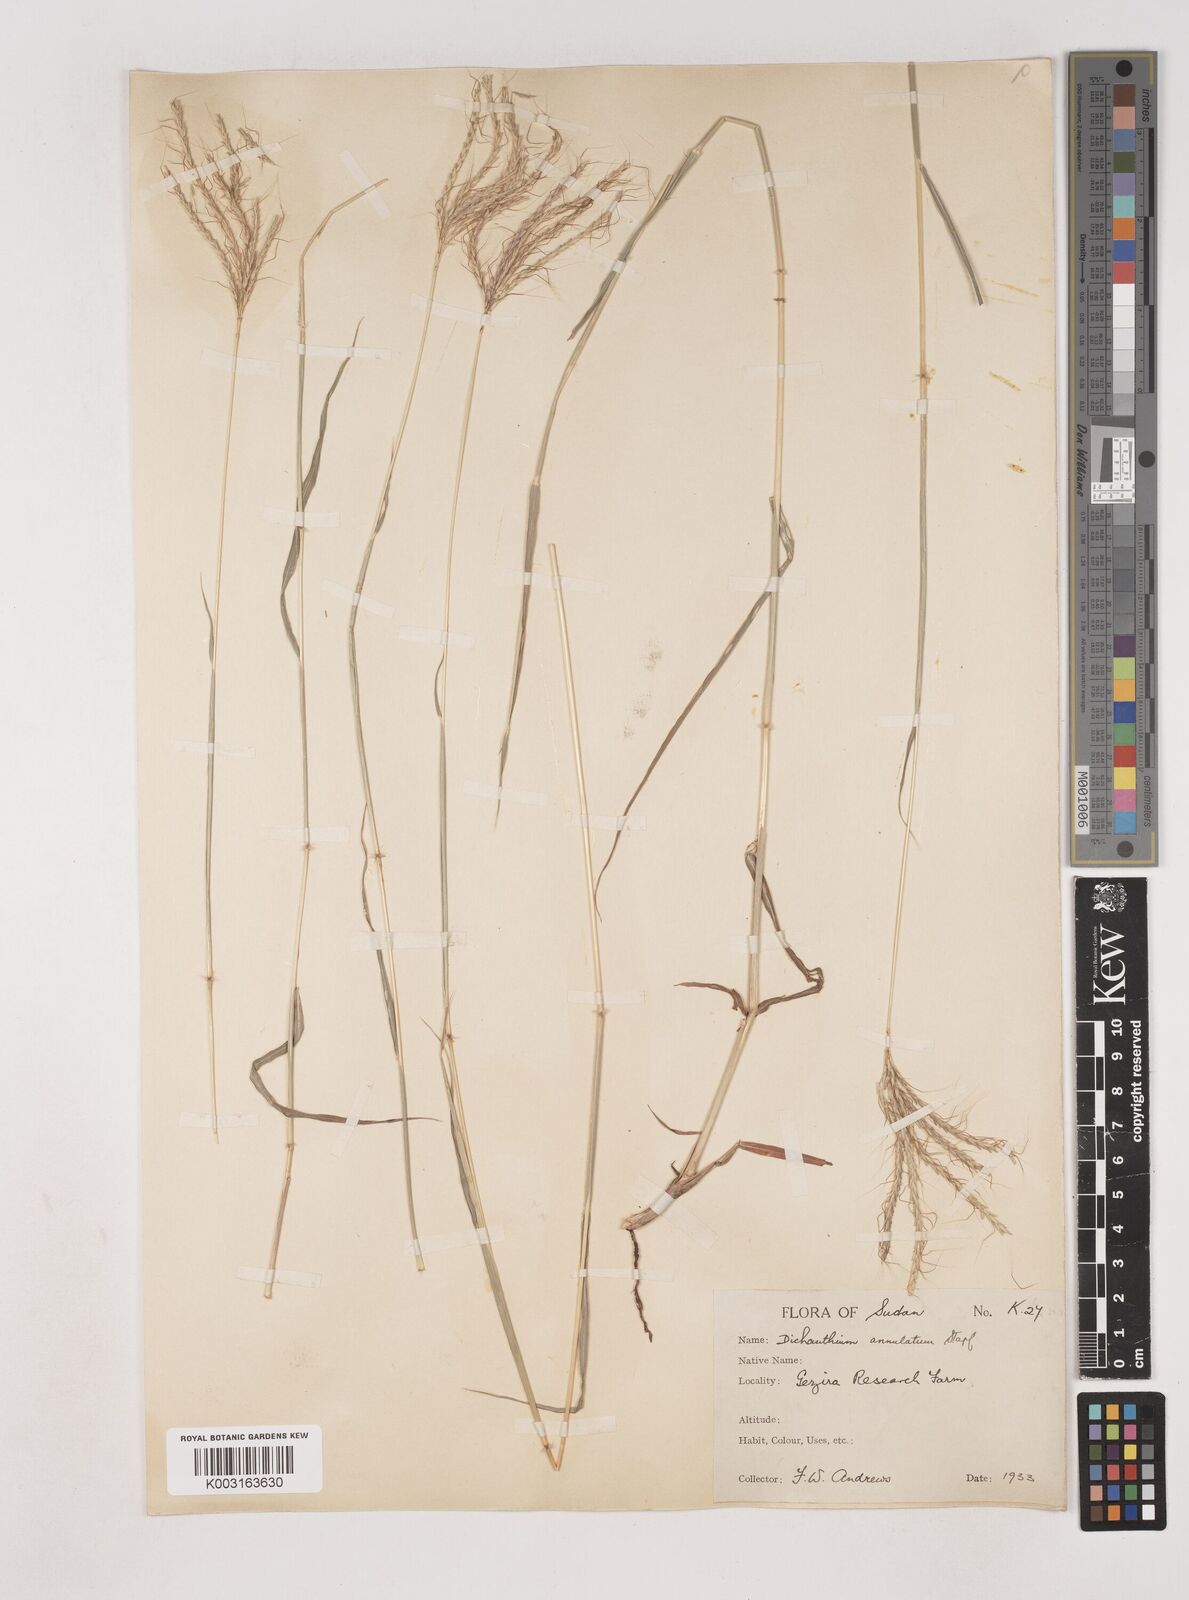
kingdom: Plantae
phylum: Tracheophyta
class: Liliopsida
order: Poales
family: Poaceae
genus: Dichanthium
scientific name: Dichanthium annulatum
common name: Kleberg's bluestem
